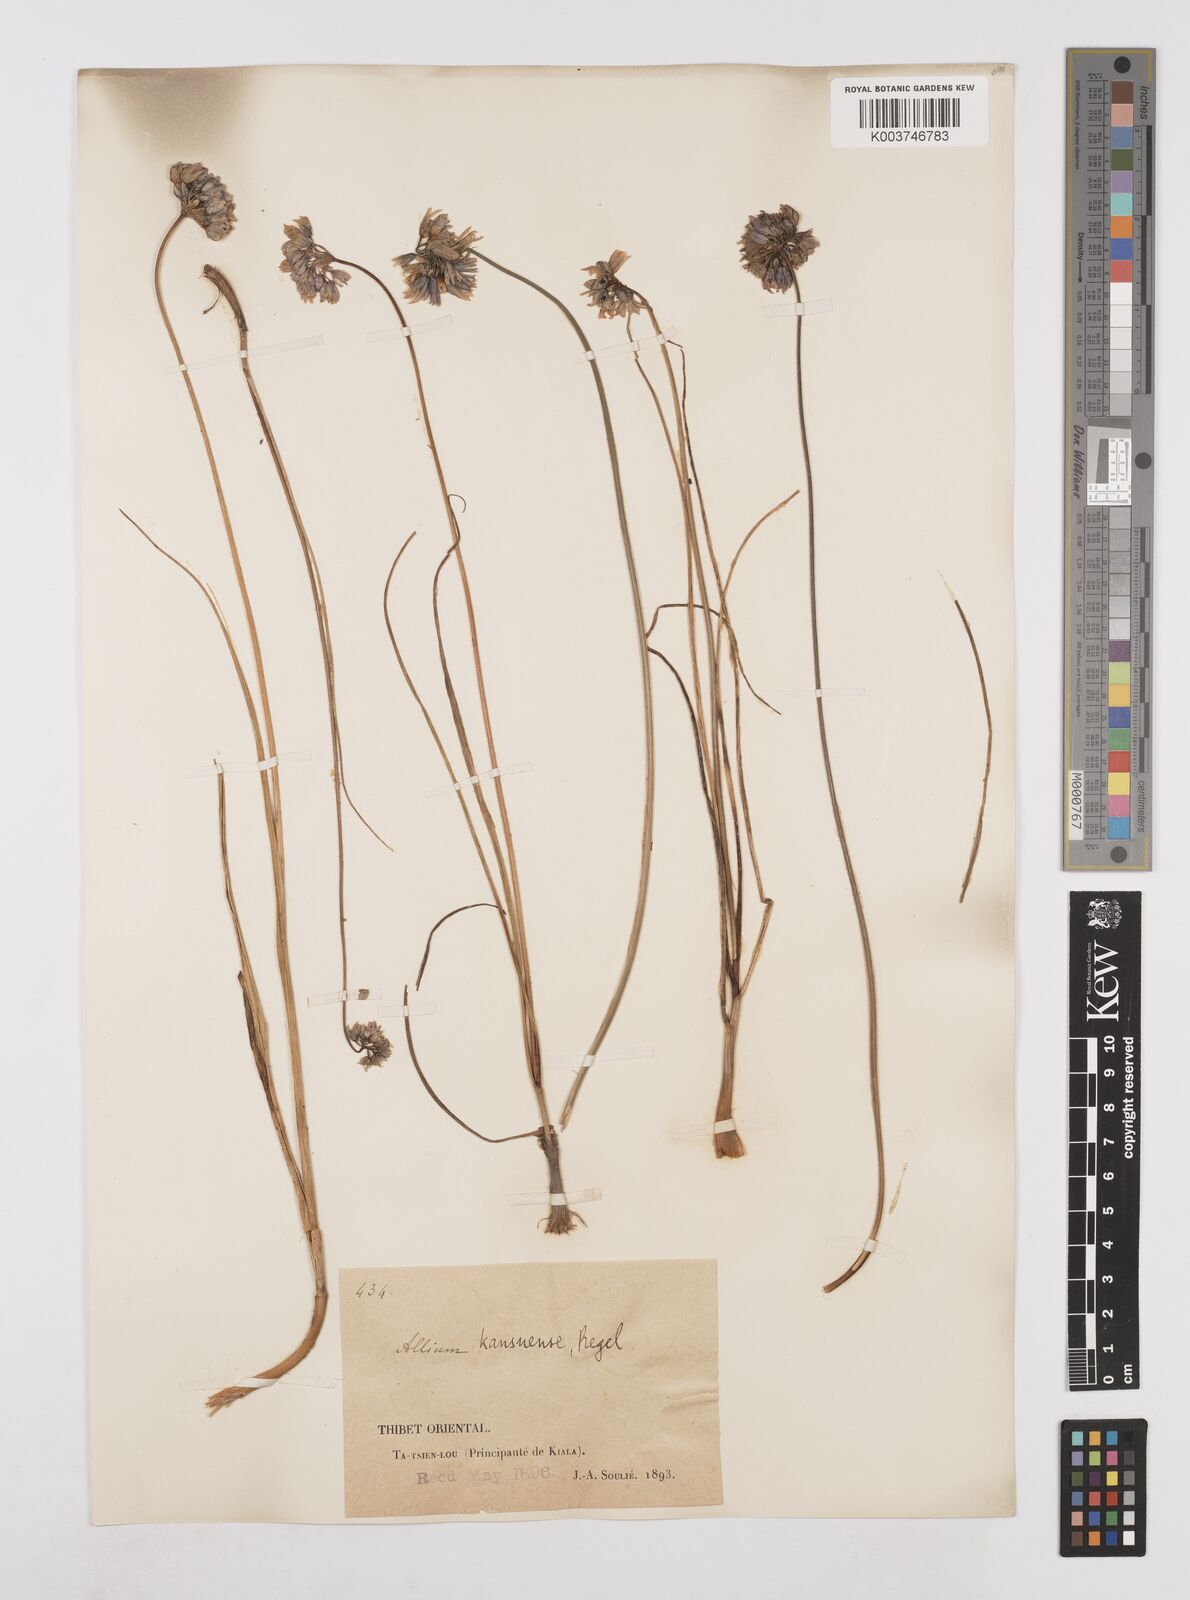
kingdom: Plantae
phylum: Tracheophyta
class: Liliopsida
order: Asparagales
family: Amaryllidaceae
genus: Allium
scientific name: Allium sikkimense
